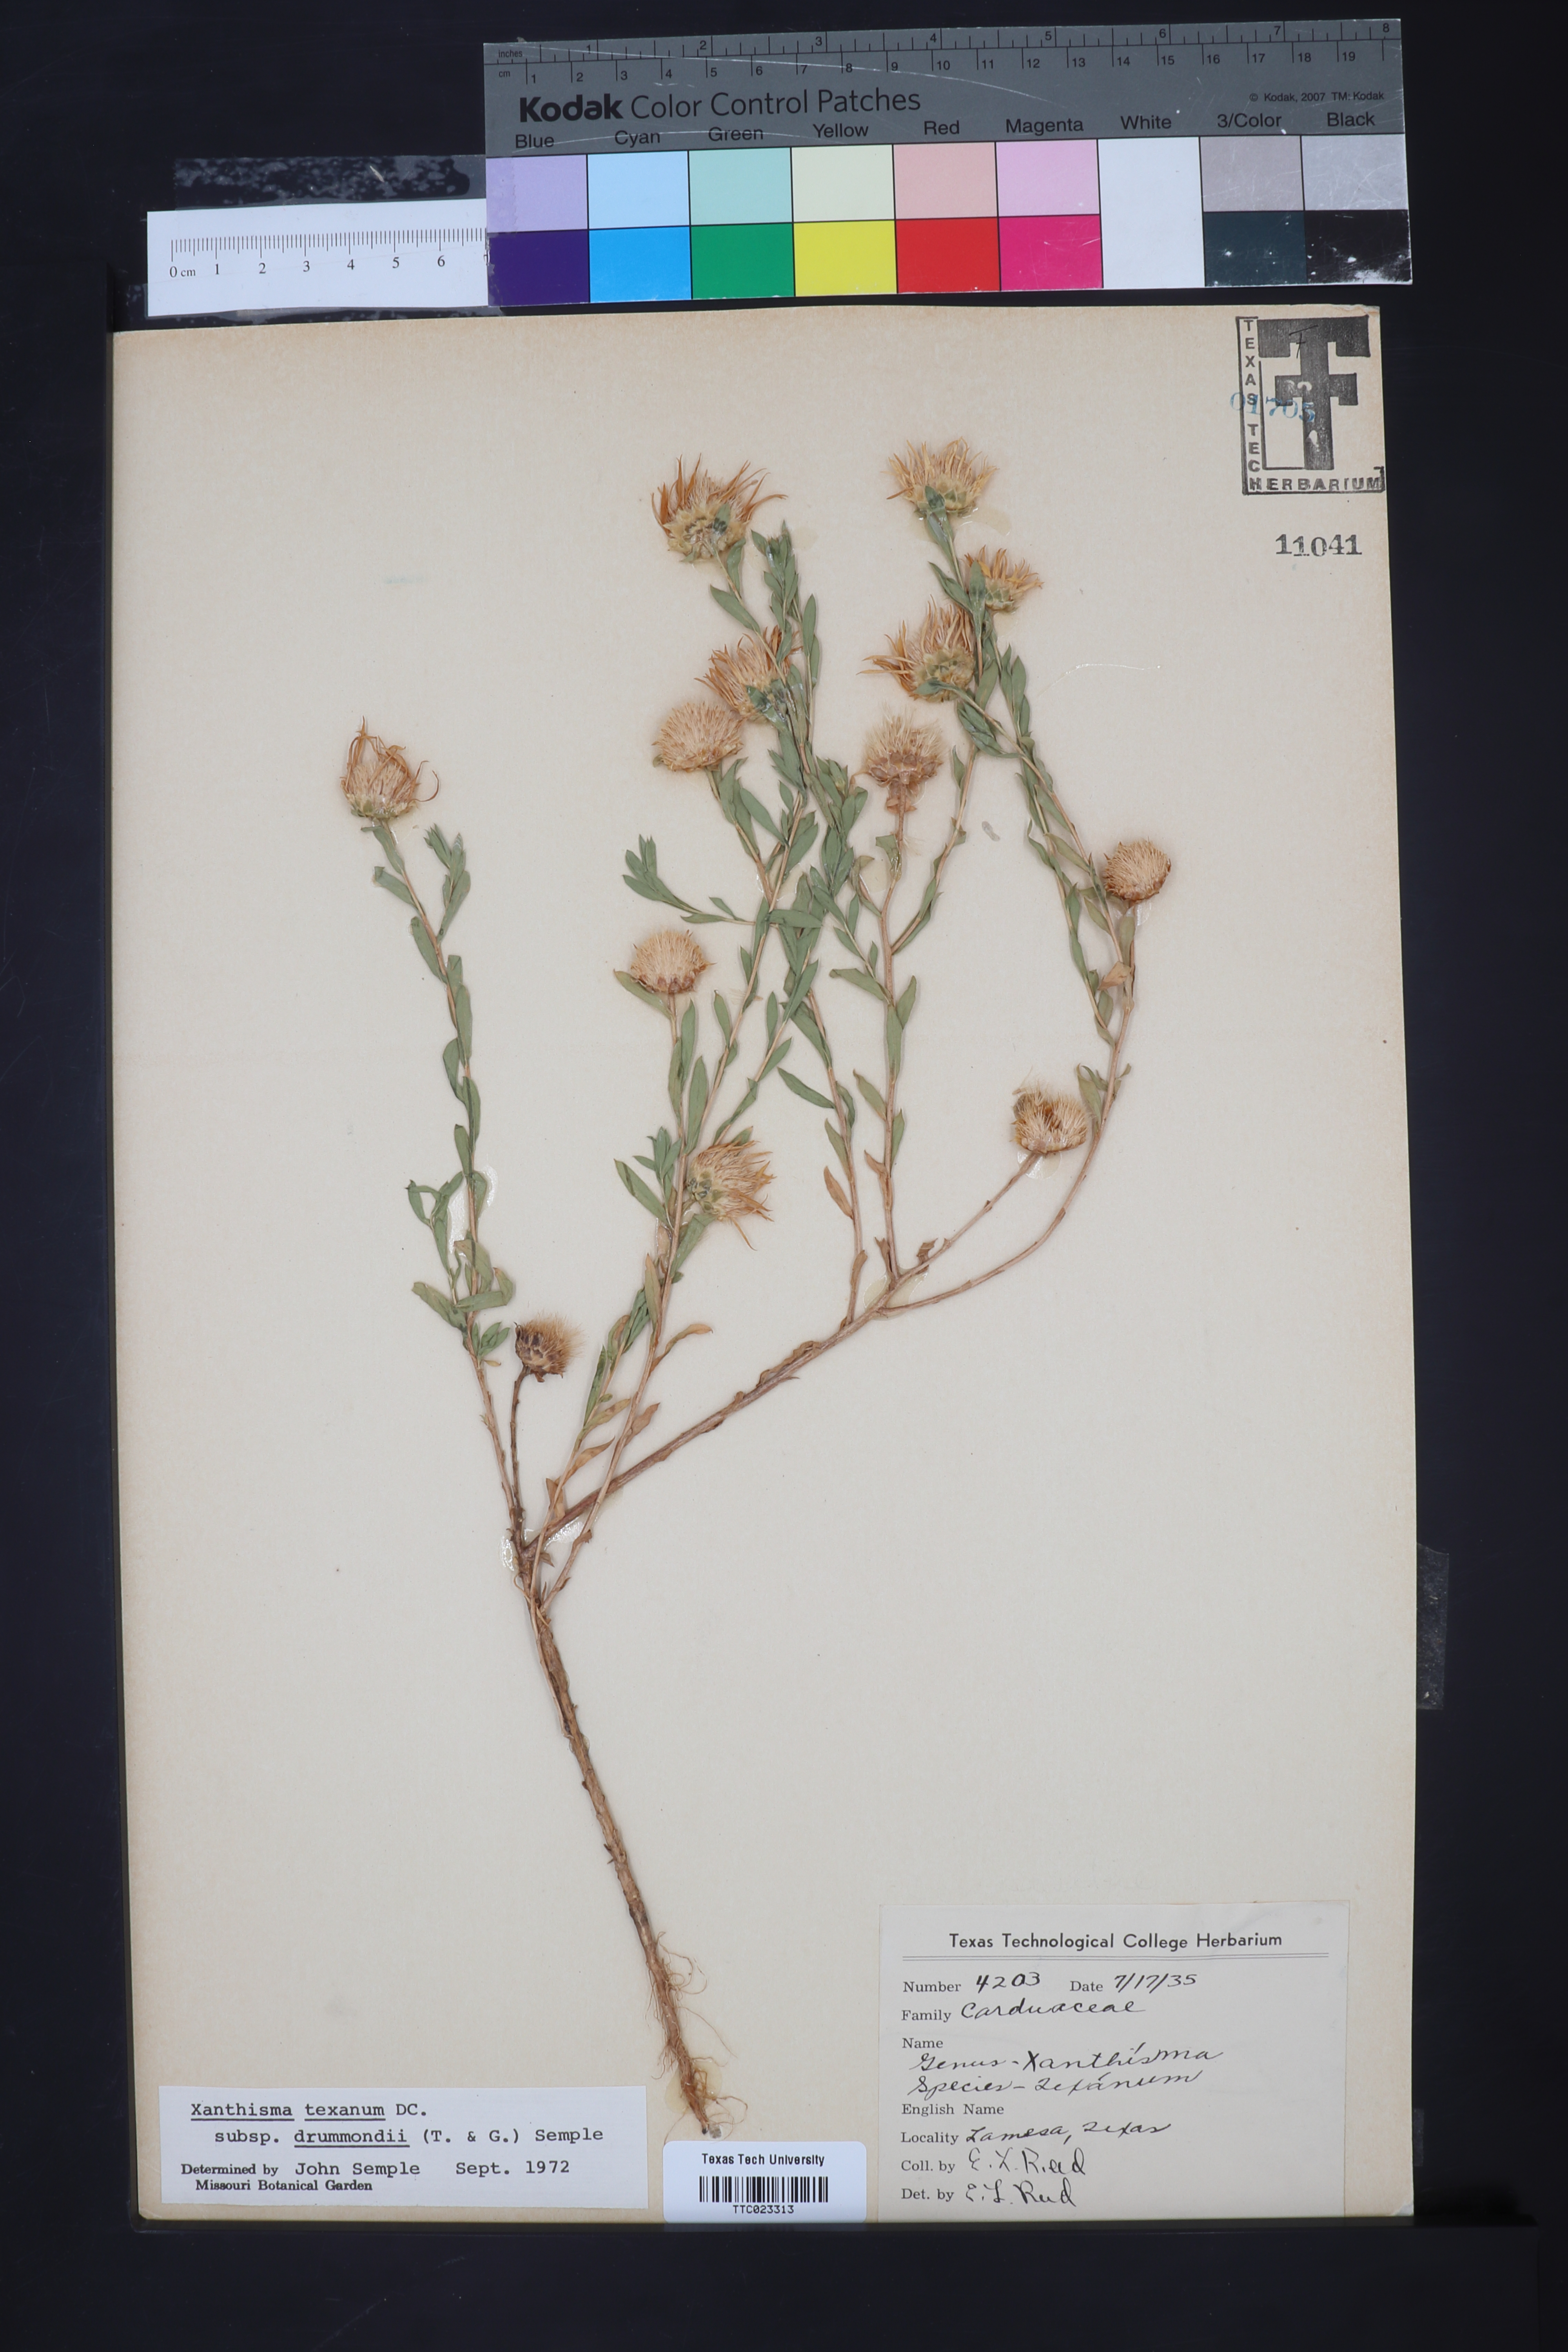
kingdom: Plantae
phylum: Tracheophyta
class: Magnoliopsida
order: Asterales
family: Asteraceae
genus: Xanthisma
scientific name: Xanthisma texanum
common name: Texas sleepy daisy
